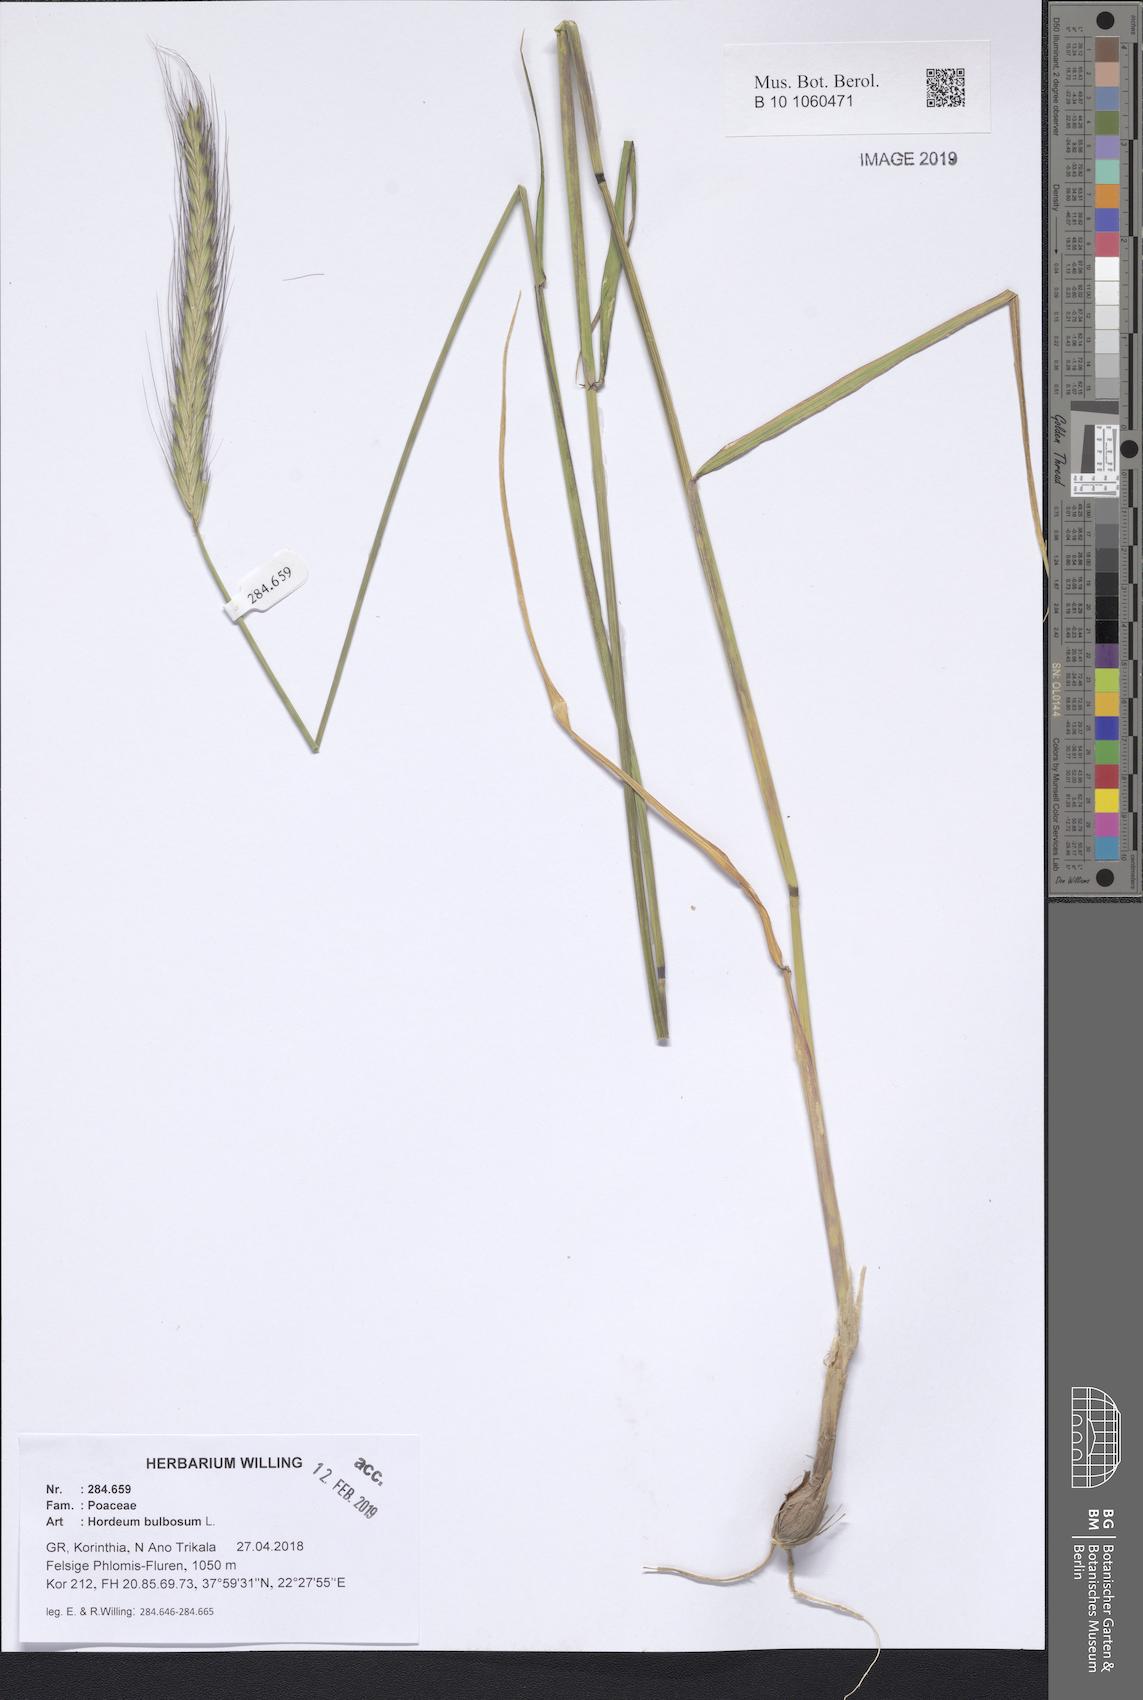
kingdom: Plantae
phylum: Tracheophyta
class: Liliopsida
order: Poales
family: Poaceae
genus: Hordeum
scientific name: Hordeum bulbosum
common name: Bulbous barley
